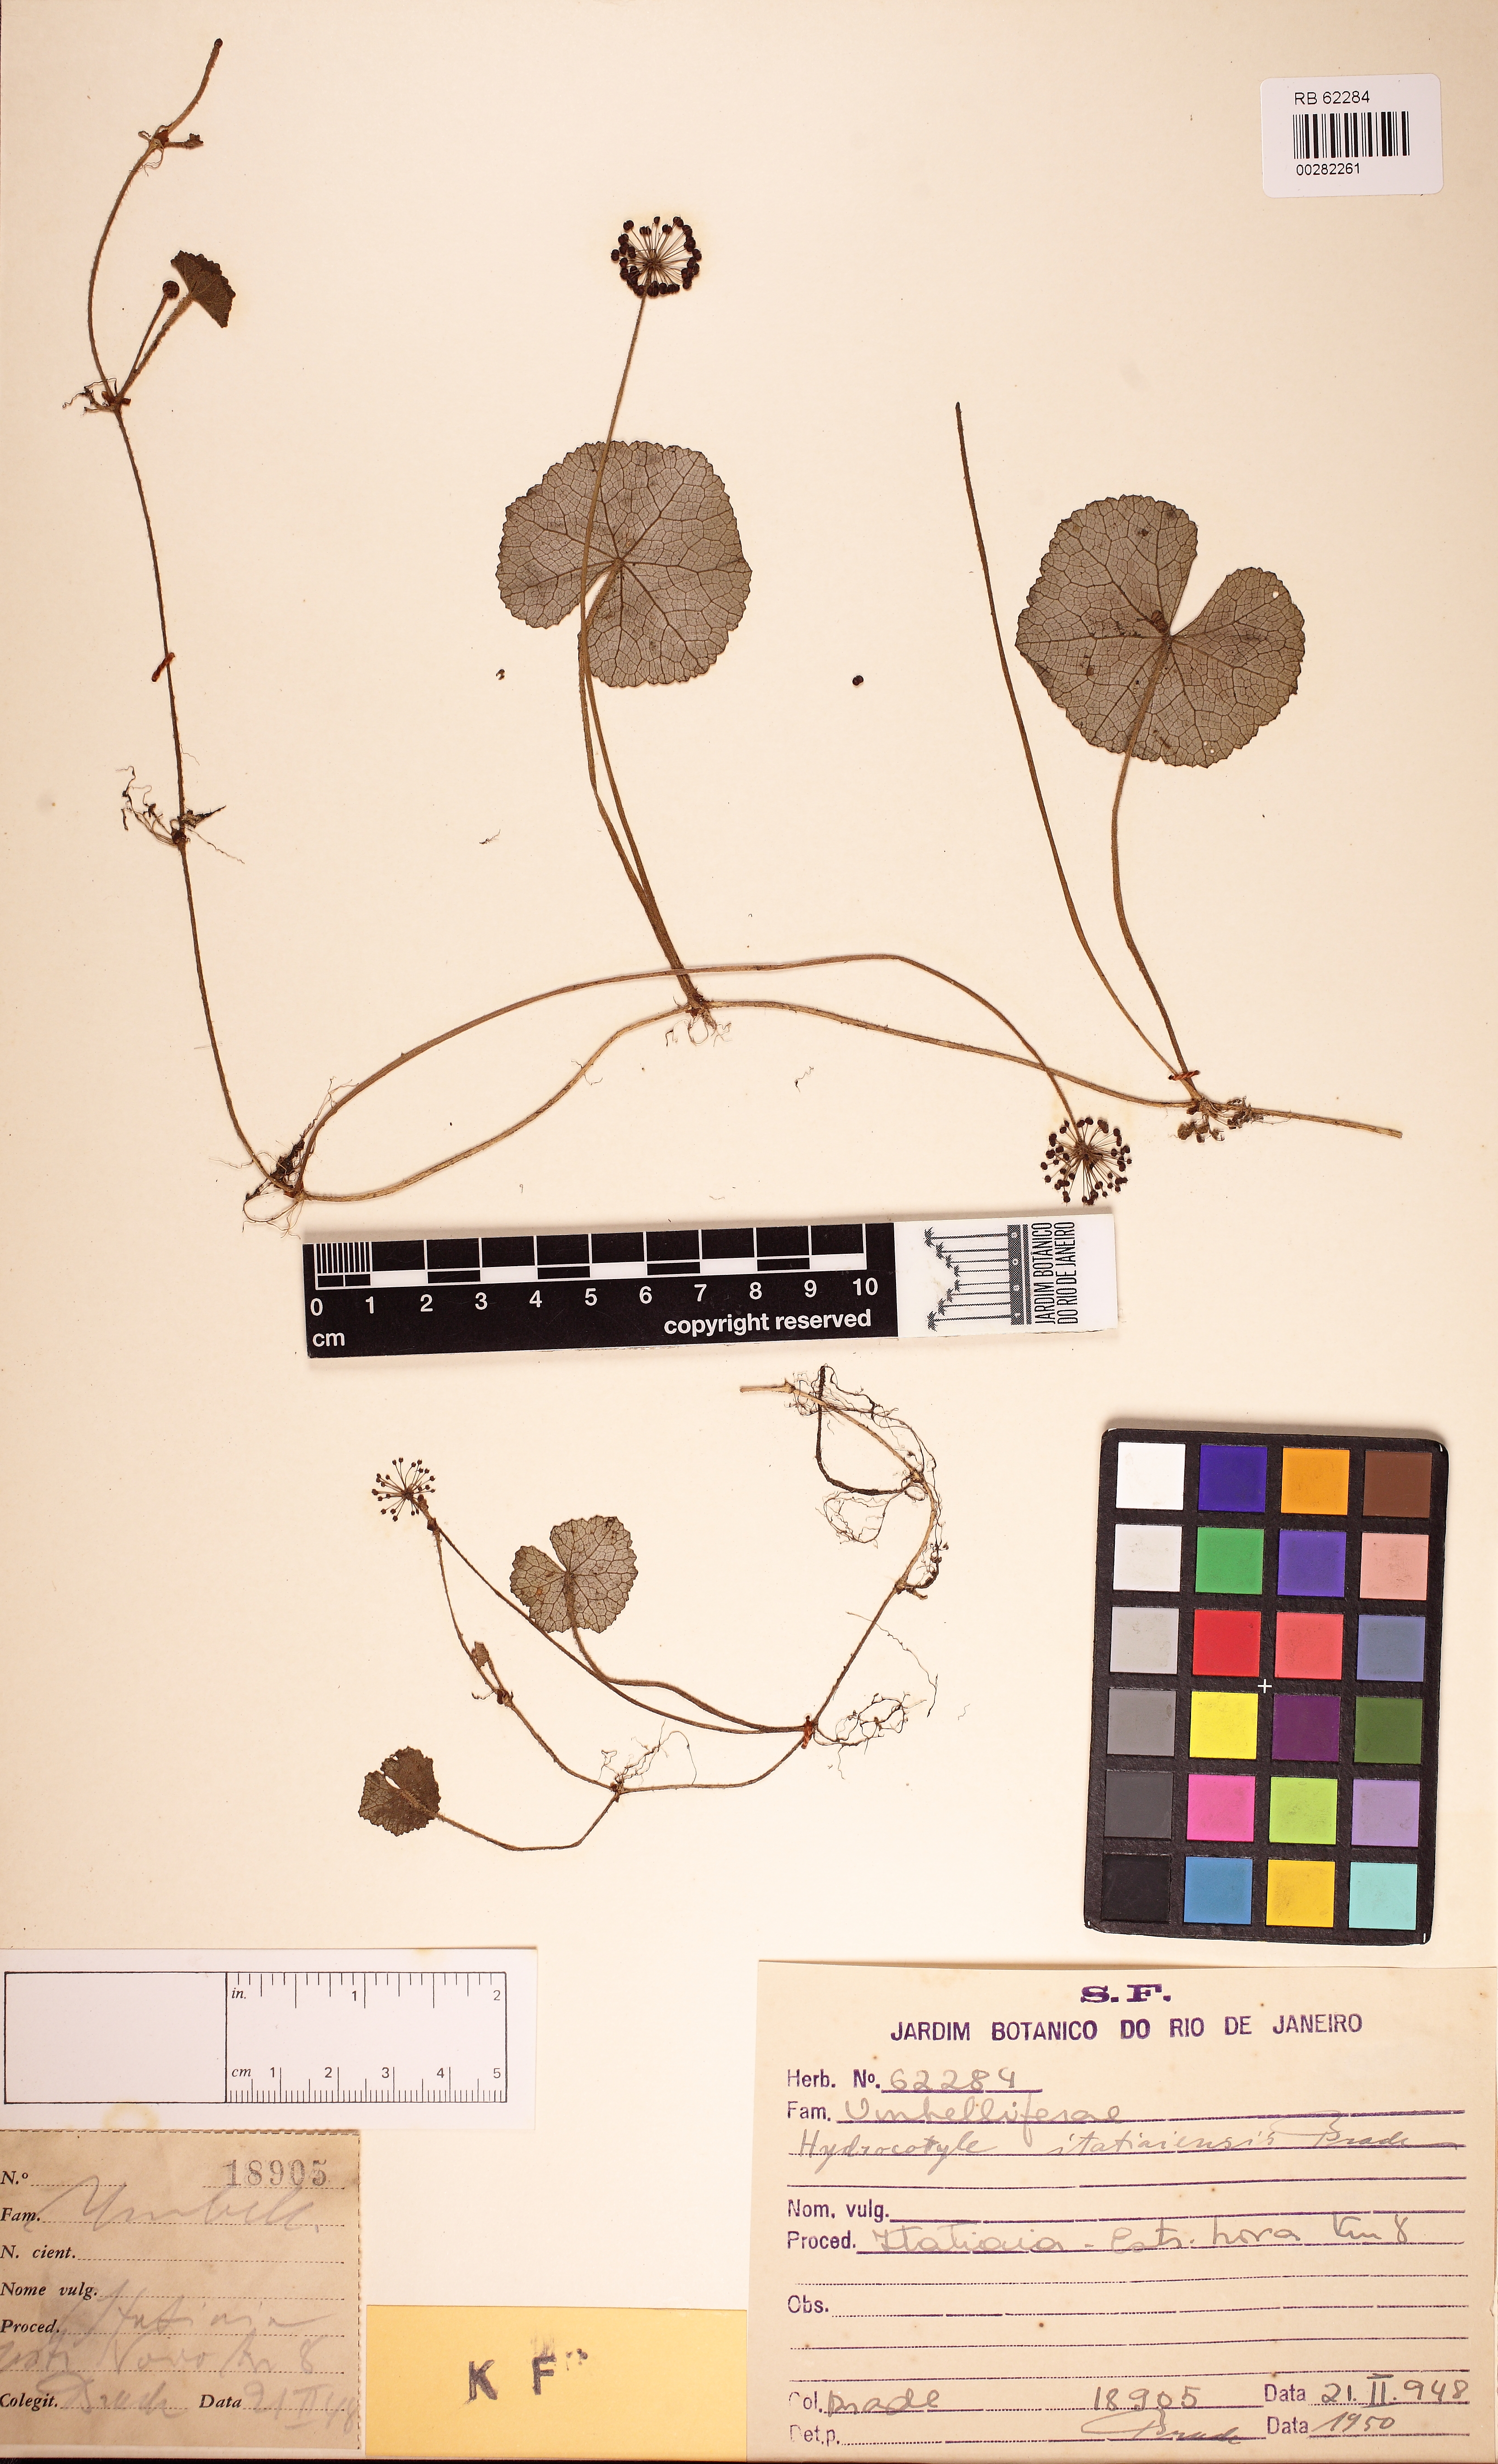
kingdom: Plantae
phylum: Tracheophyta
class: Magnoliopsida
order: Apiales
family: Araliaceae
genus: Hydrocotyle
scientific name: Hydrocotyle itatiaiensis
